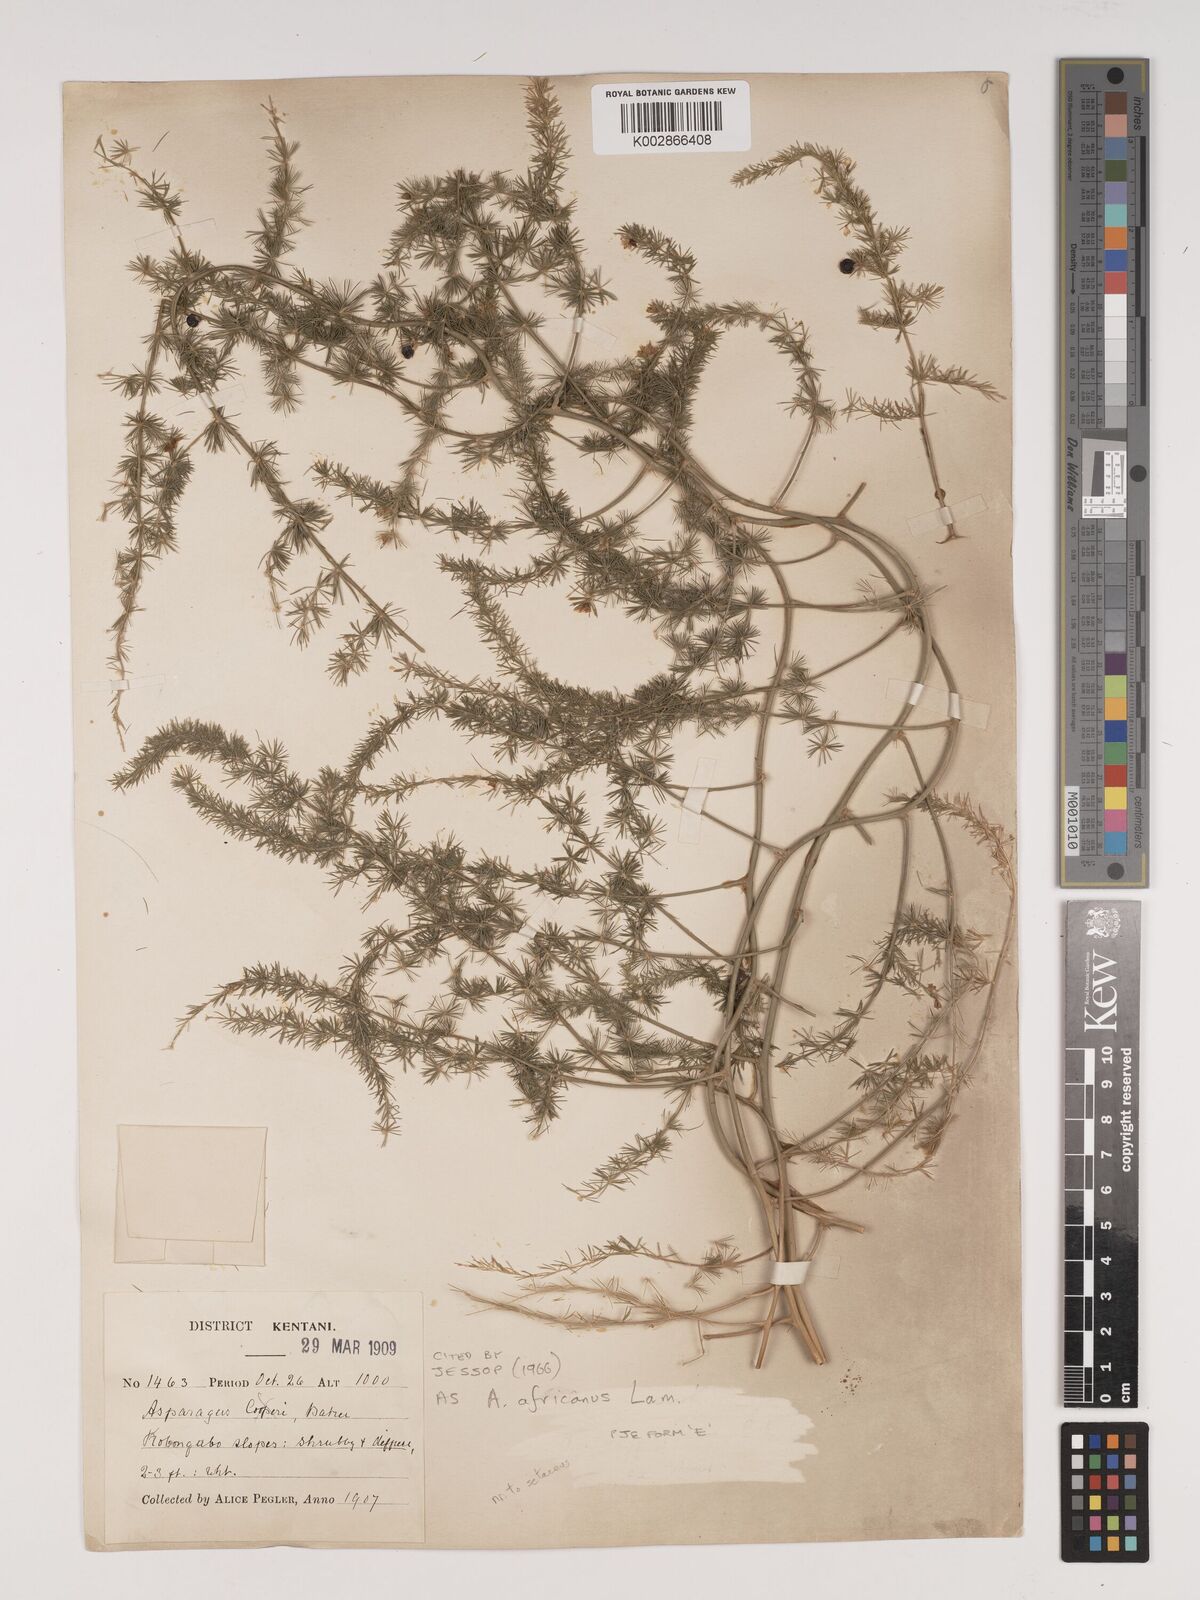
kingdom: Plantae
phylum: Tracheophyta
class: Liliopsida
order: Asparagales
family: Asparagaceae
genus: Asparagus
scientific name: Asparagus africanus
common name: Asparagus-fern
